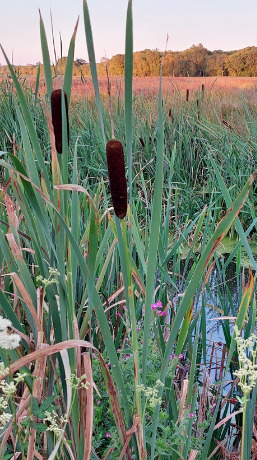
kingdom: Plantae
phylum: Tracheophyta
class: Liliopsida
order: Poales
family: Typhaceae
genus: Typha
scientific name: Typha latifolia
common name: Bredbladet dunhammer
